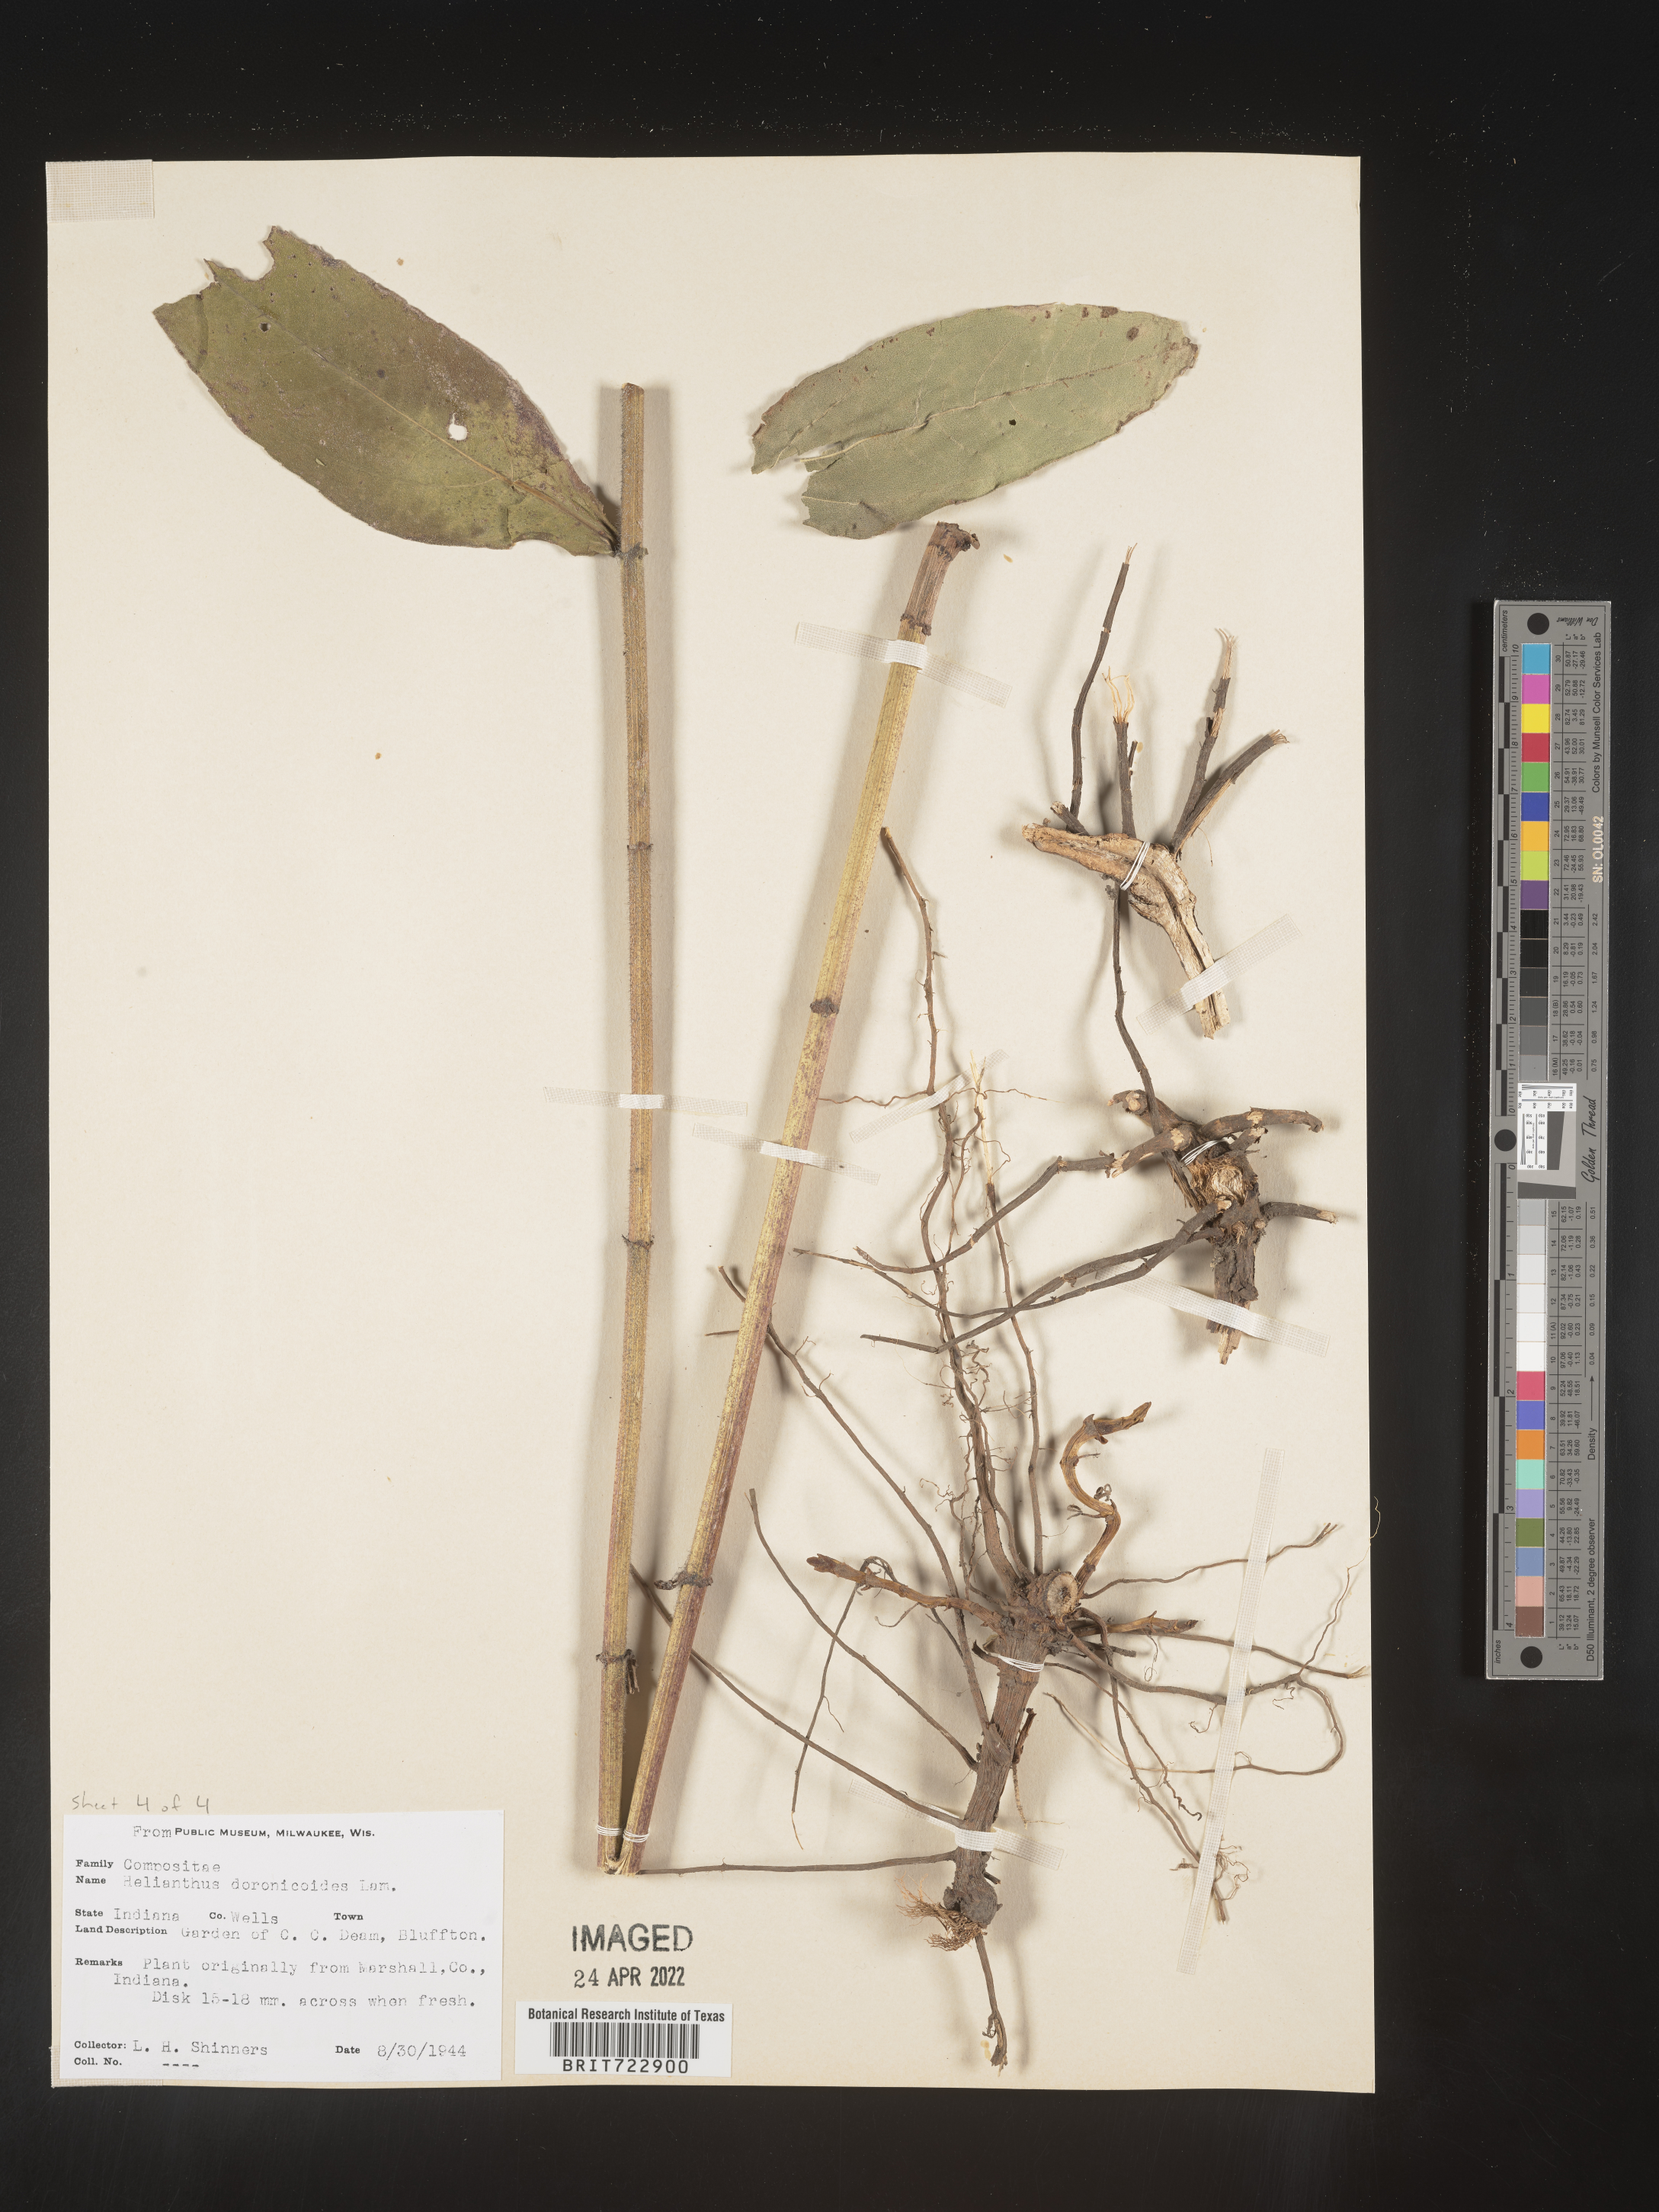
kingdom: Plantae
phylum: Tracheophyta
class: Magnoliopsida
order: Asterales
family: Asteraceae
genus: Helianthus
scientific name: Helianthus
